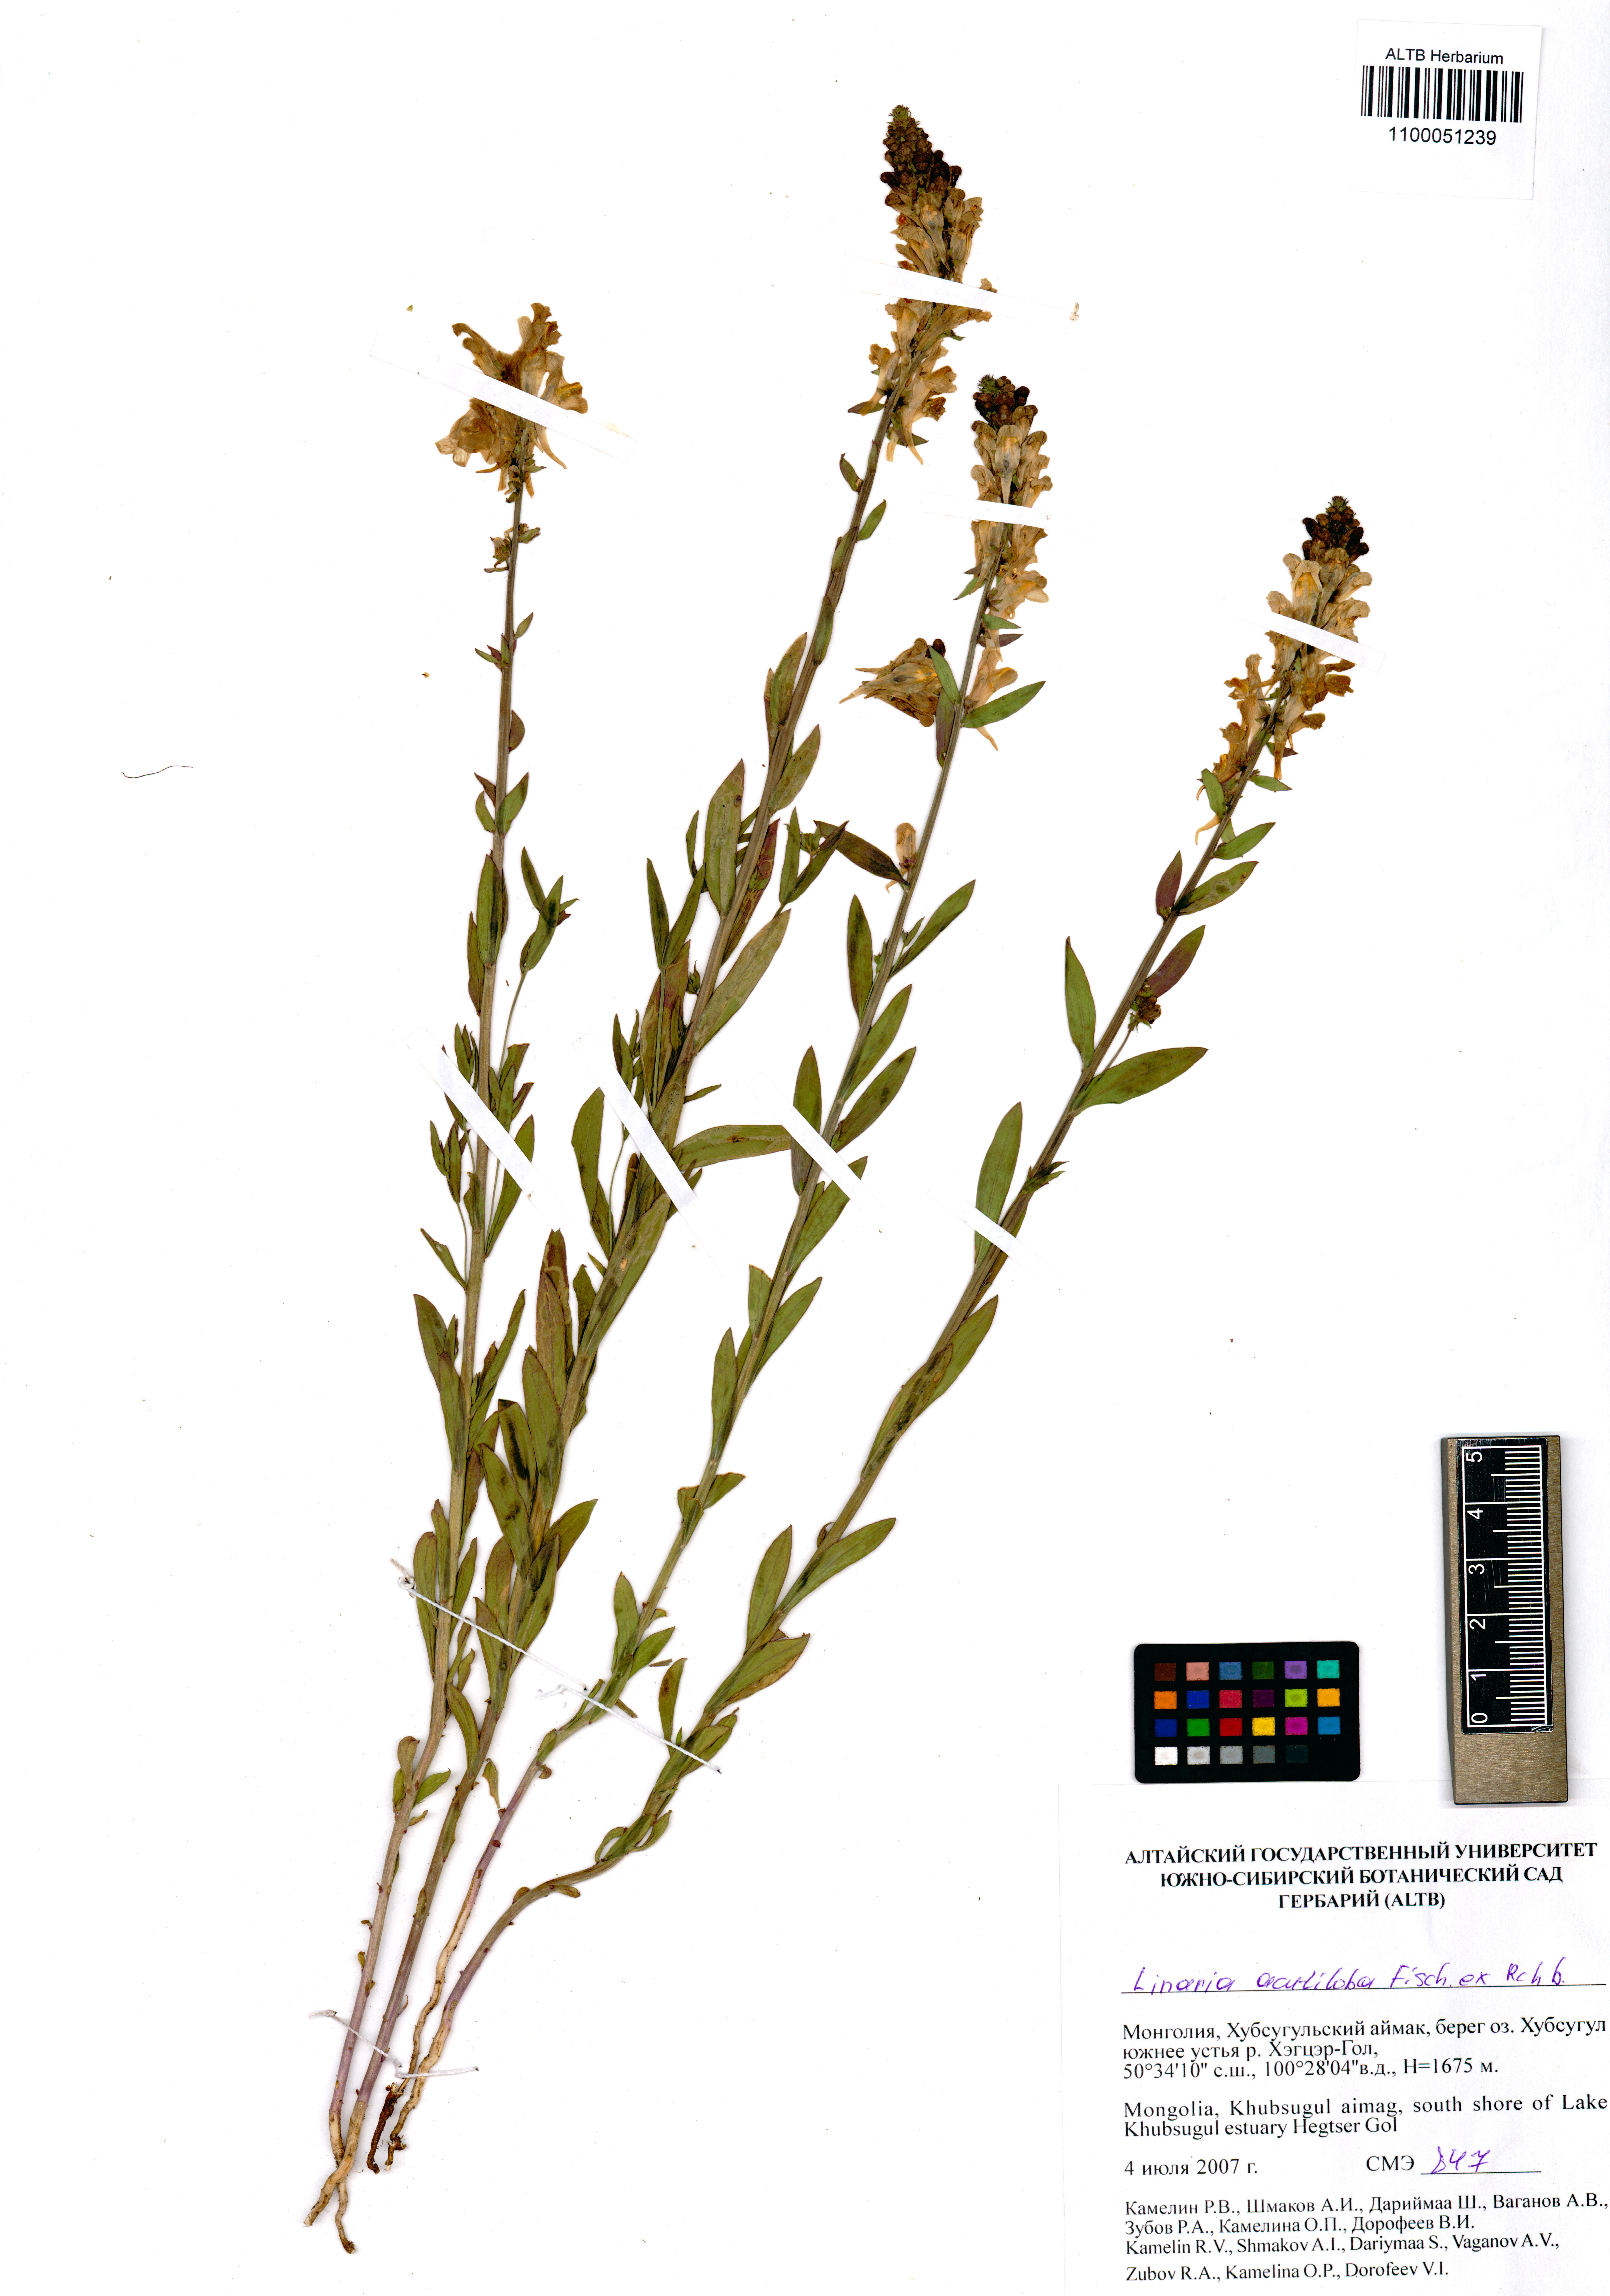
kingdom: Plantae
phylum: Tracheophyta
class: Magnoliopsida
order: Lamiales
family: Plantaginaceae
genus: Linaria
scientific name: Linaria acutiloba
